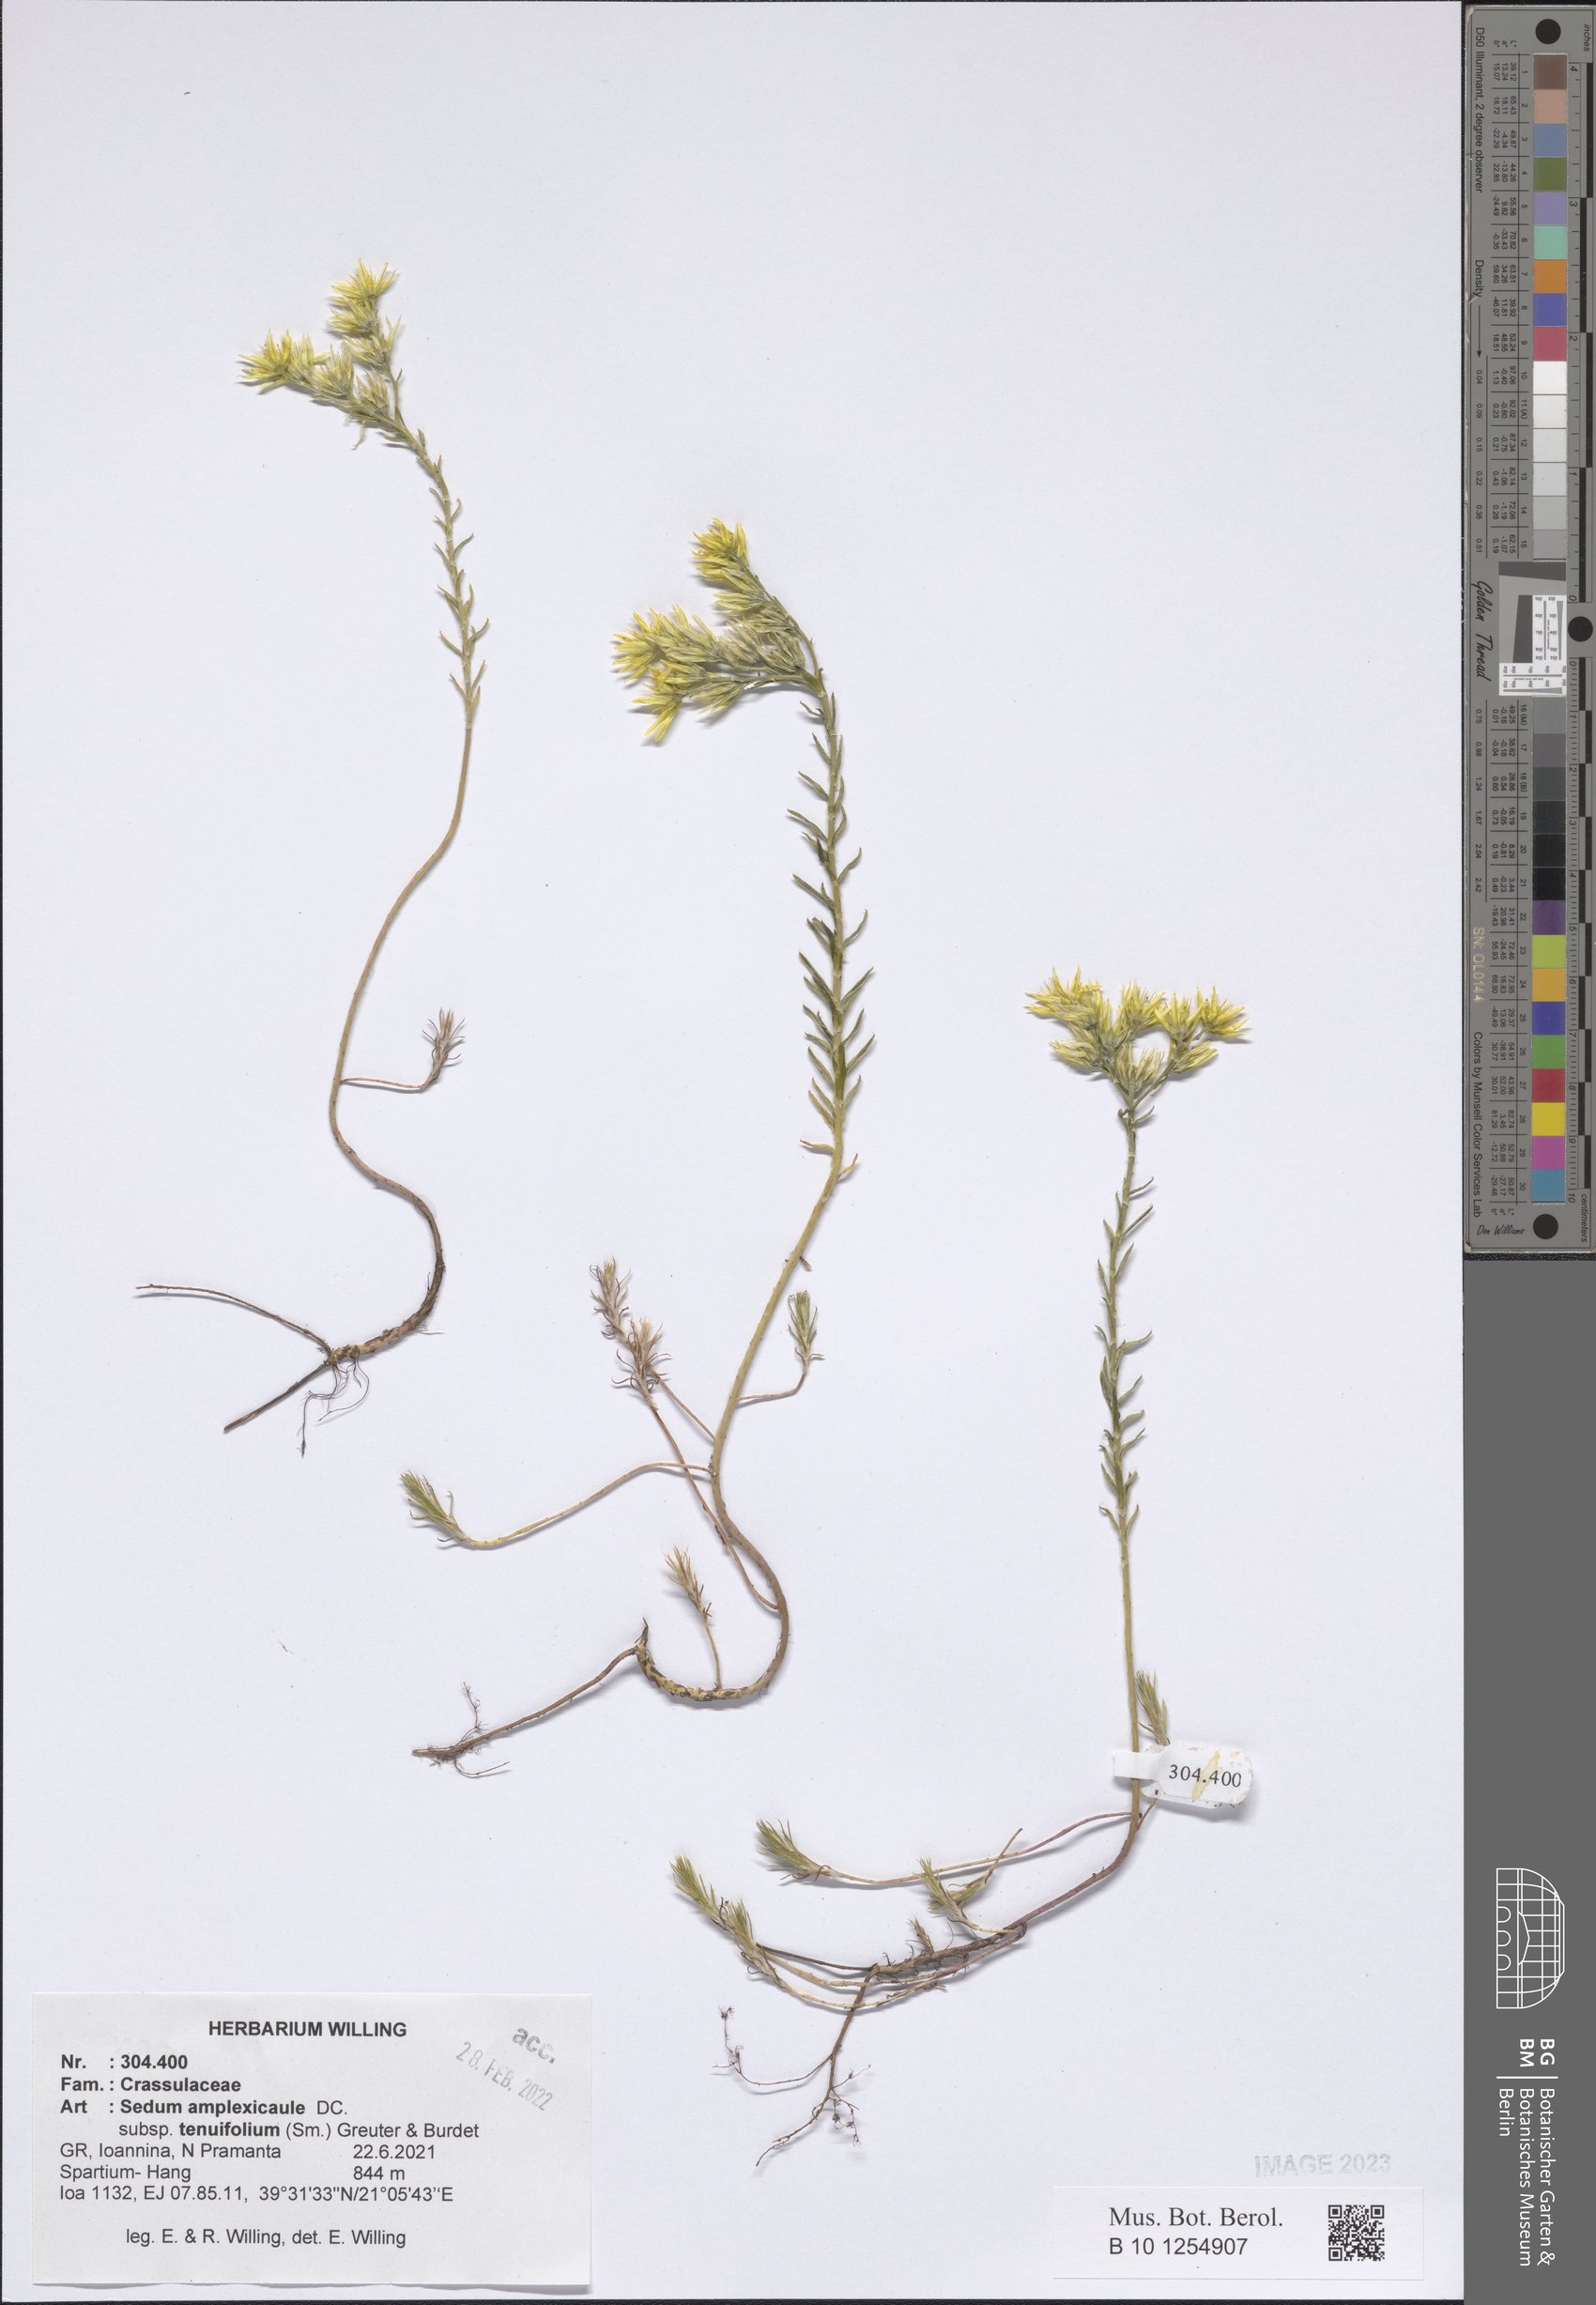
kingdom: Plantae
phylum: Tracheophyta
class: Magnoliopsida
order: Saxifragales
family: Crassulaceae
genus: Petrosedum
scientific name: Petrosedum tenuifolium
